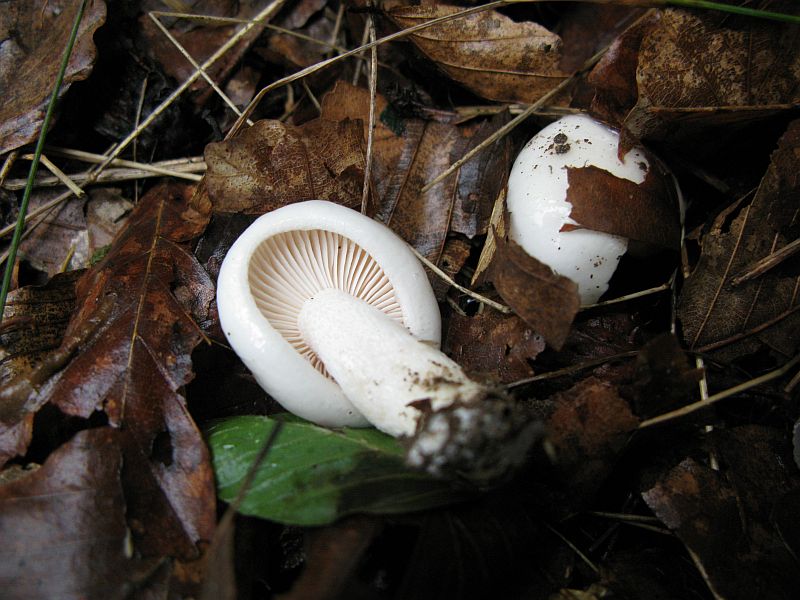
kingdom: Fungi
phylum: Basidiomycota
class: Agaricomycetes
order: Agaricales
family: Hygrophoraceae
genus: Hygrophorus
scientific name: Hygrophorus eburneus
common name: elfenbens-sneglehat
